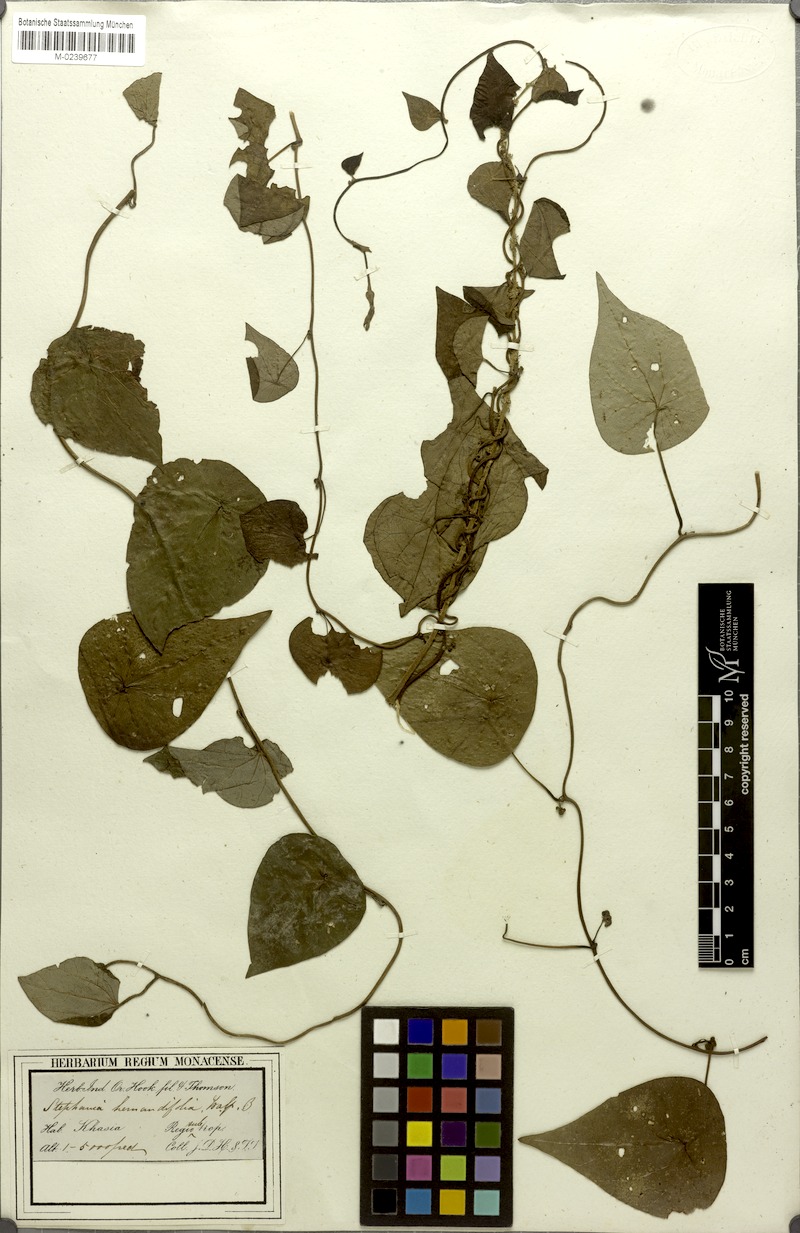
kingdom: Plantae
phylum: Tracheophyta
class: Magnoliopsida
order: Ranunculales
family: Menispermaceae
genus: Stephania
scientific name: Stephania japonica
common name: Snake vine
